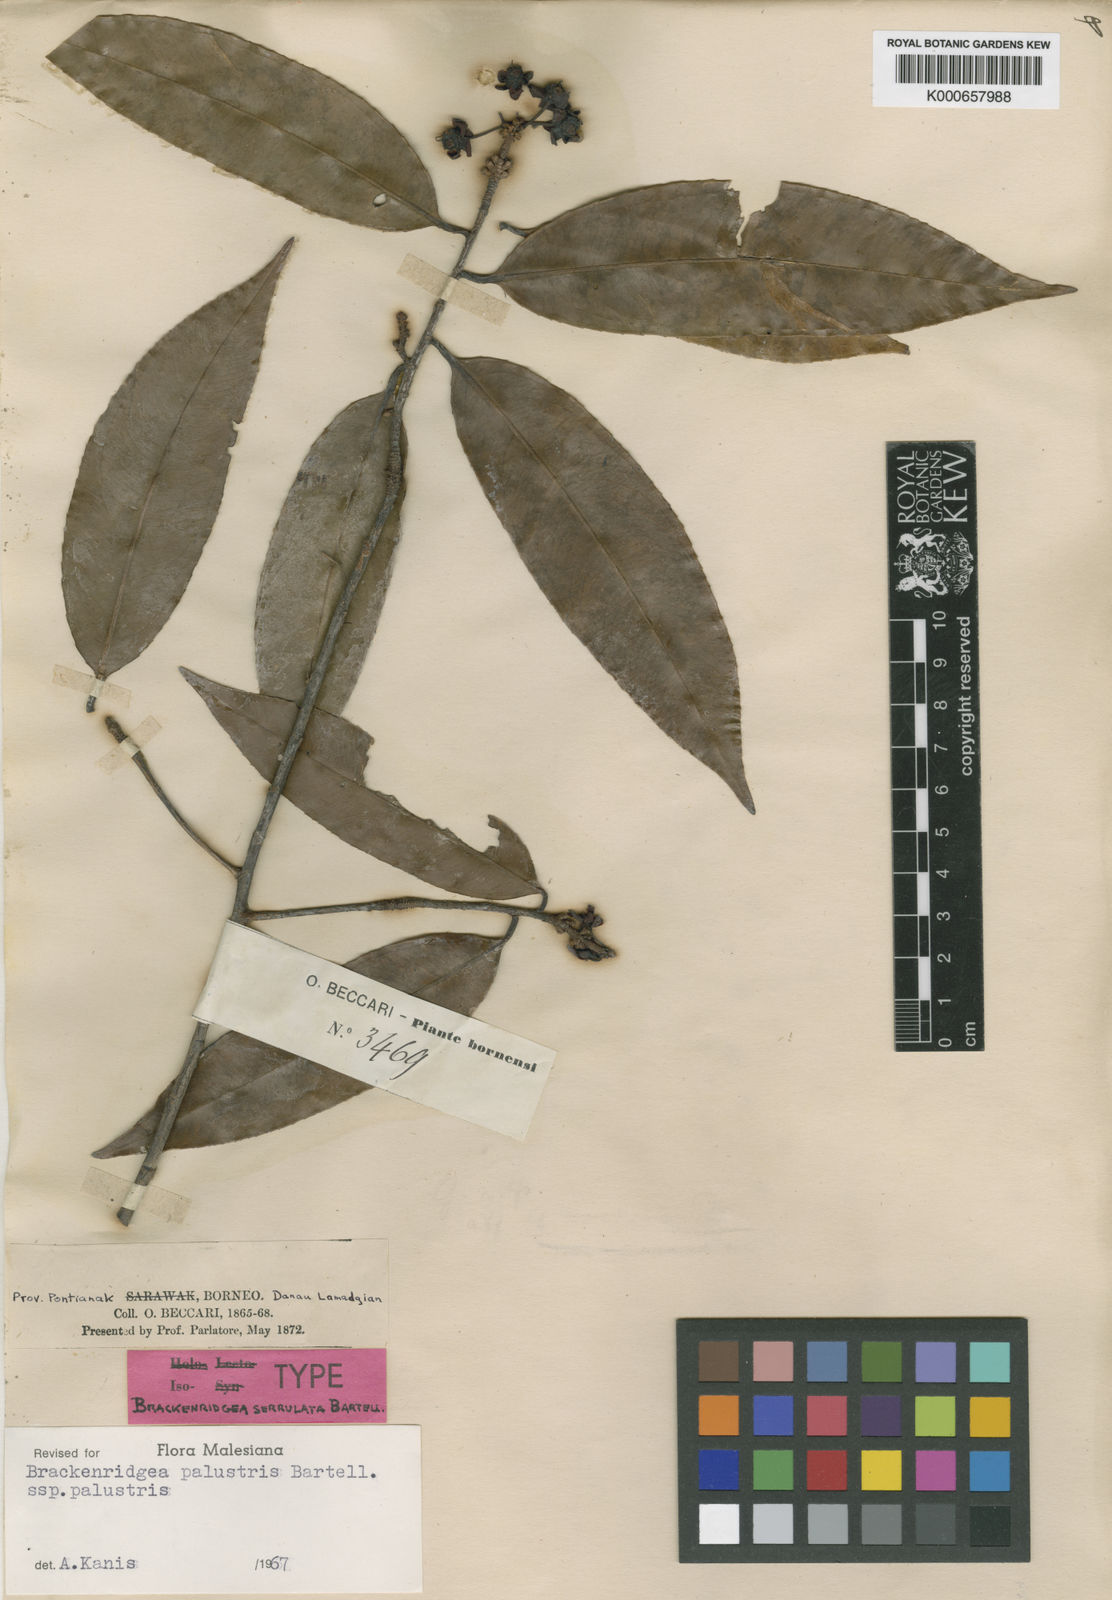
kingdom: Plantae
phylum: Tracheophyta
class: Magnoliopsida
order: Malpighiales
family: Ochnaceae
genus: Brackenridgea
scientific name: Brackenridgea palustris
